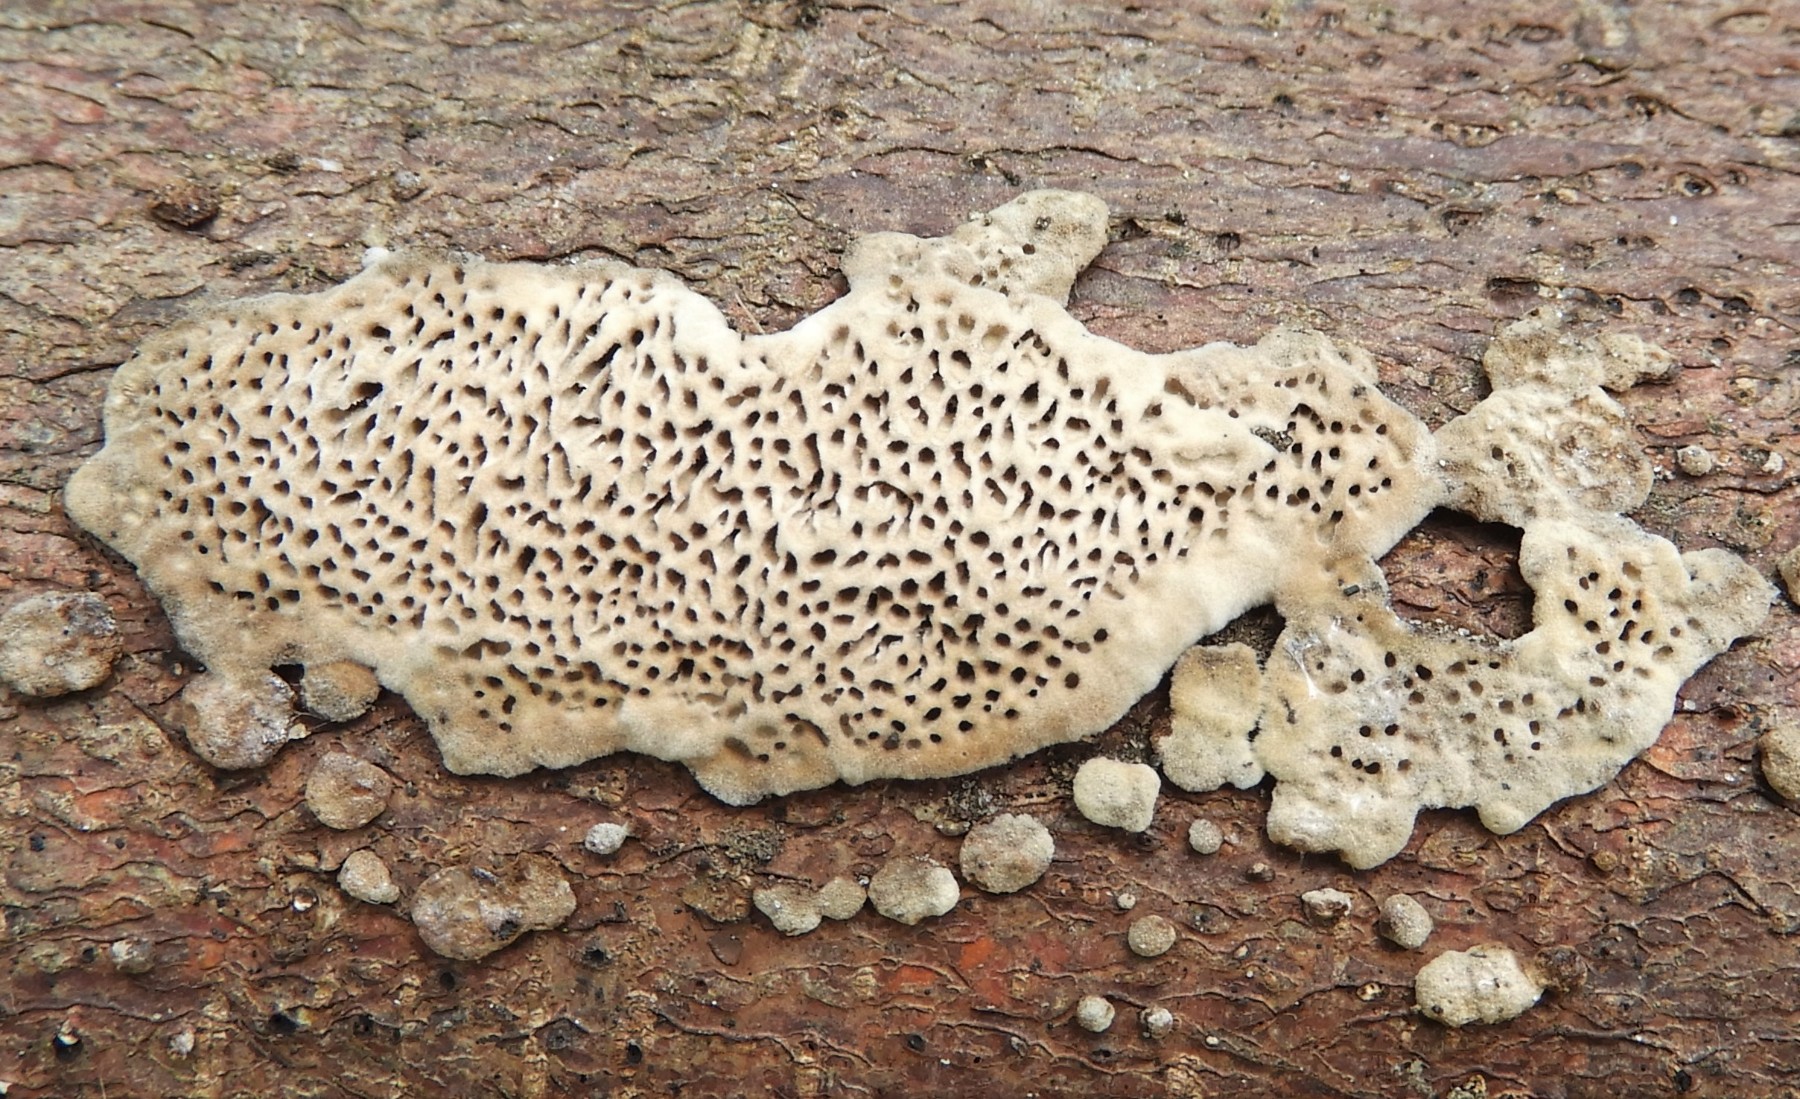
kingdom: Fungi
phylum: Basidiomycota
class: Agaricomycetes
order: Polyporales
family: Polyporaceae
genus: Podofomes
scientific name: Podofomes mollis
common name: blød begporesvamp
